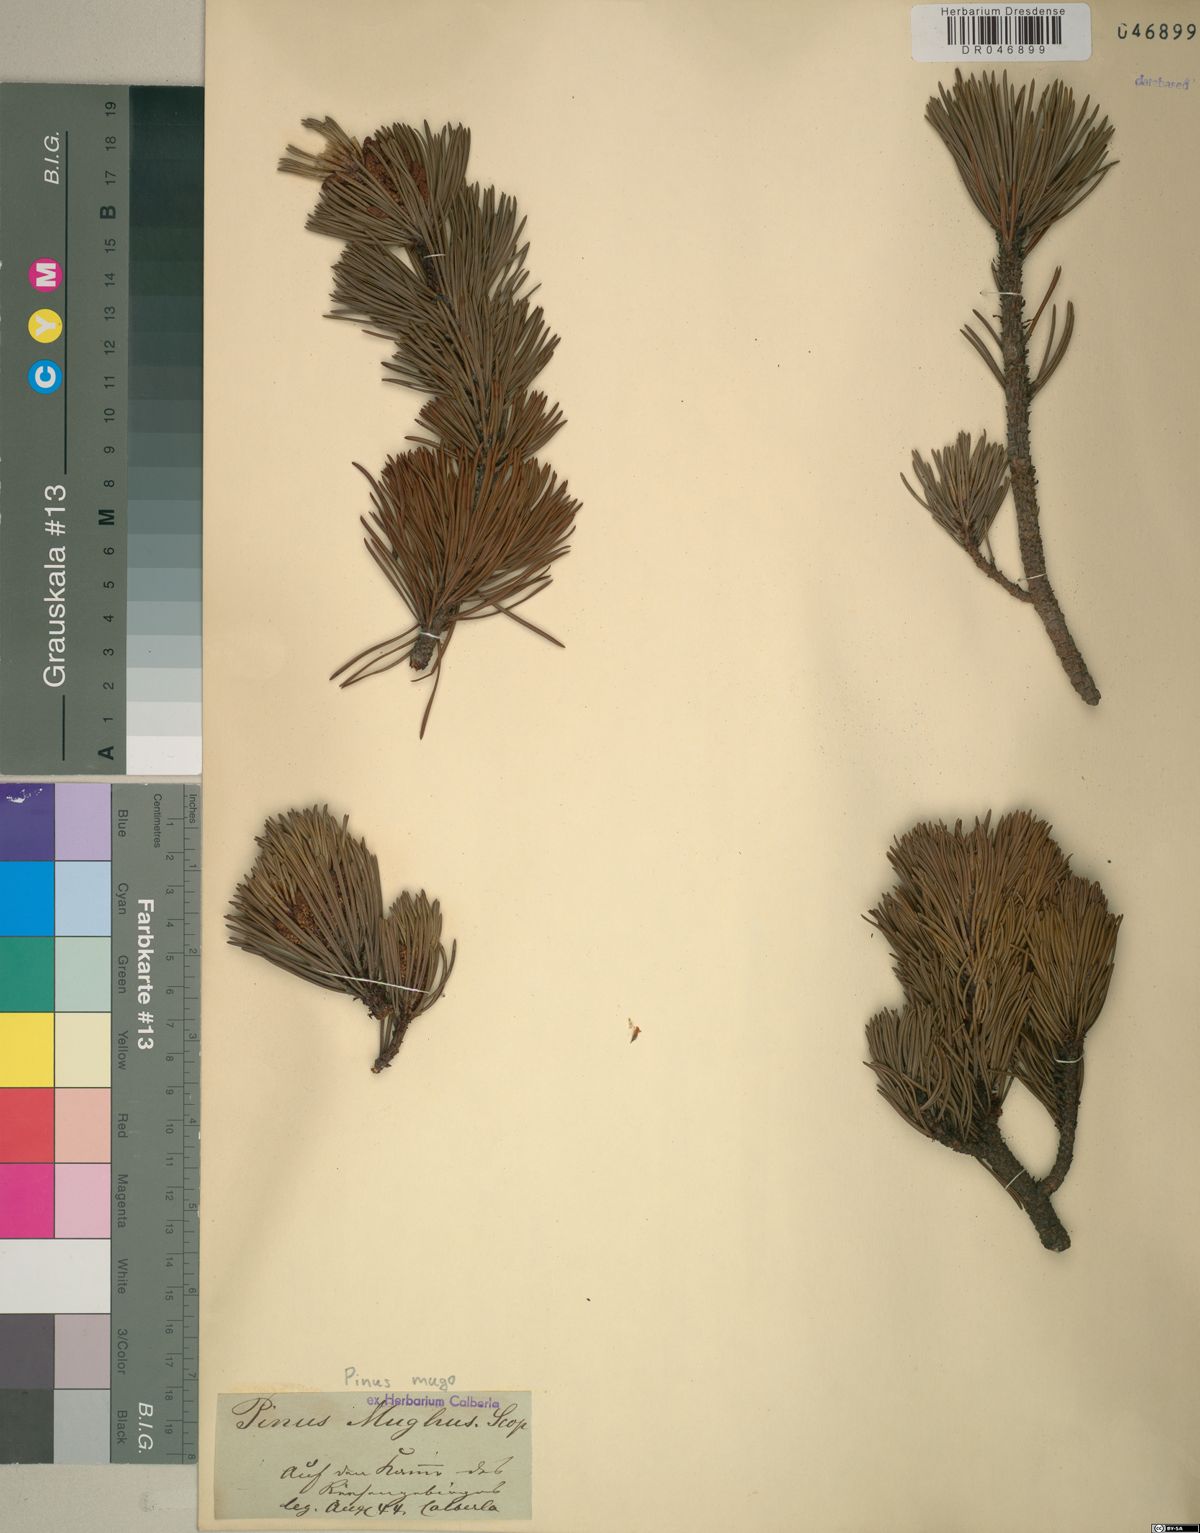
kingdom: Plantae
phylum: Tracheophyta
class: Pinopsida
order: Pinales
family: Pinaceae
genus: Pinus
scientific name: Pinus mugo
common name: Mugo pine
